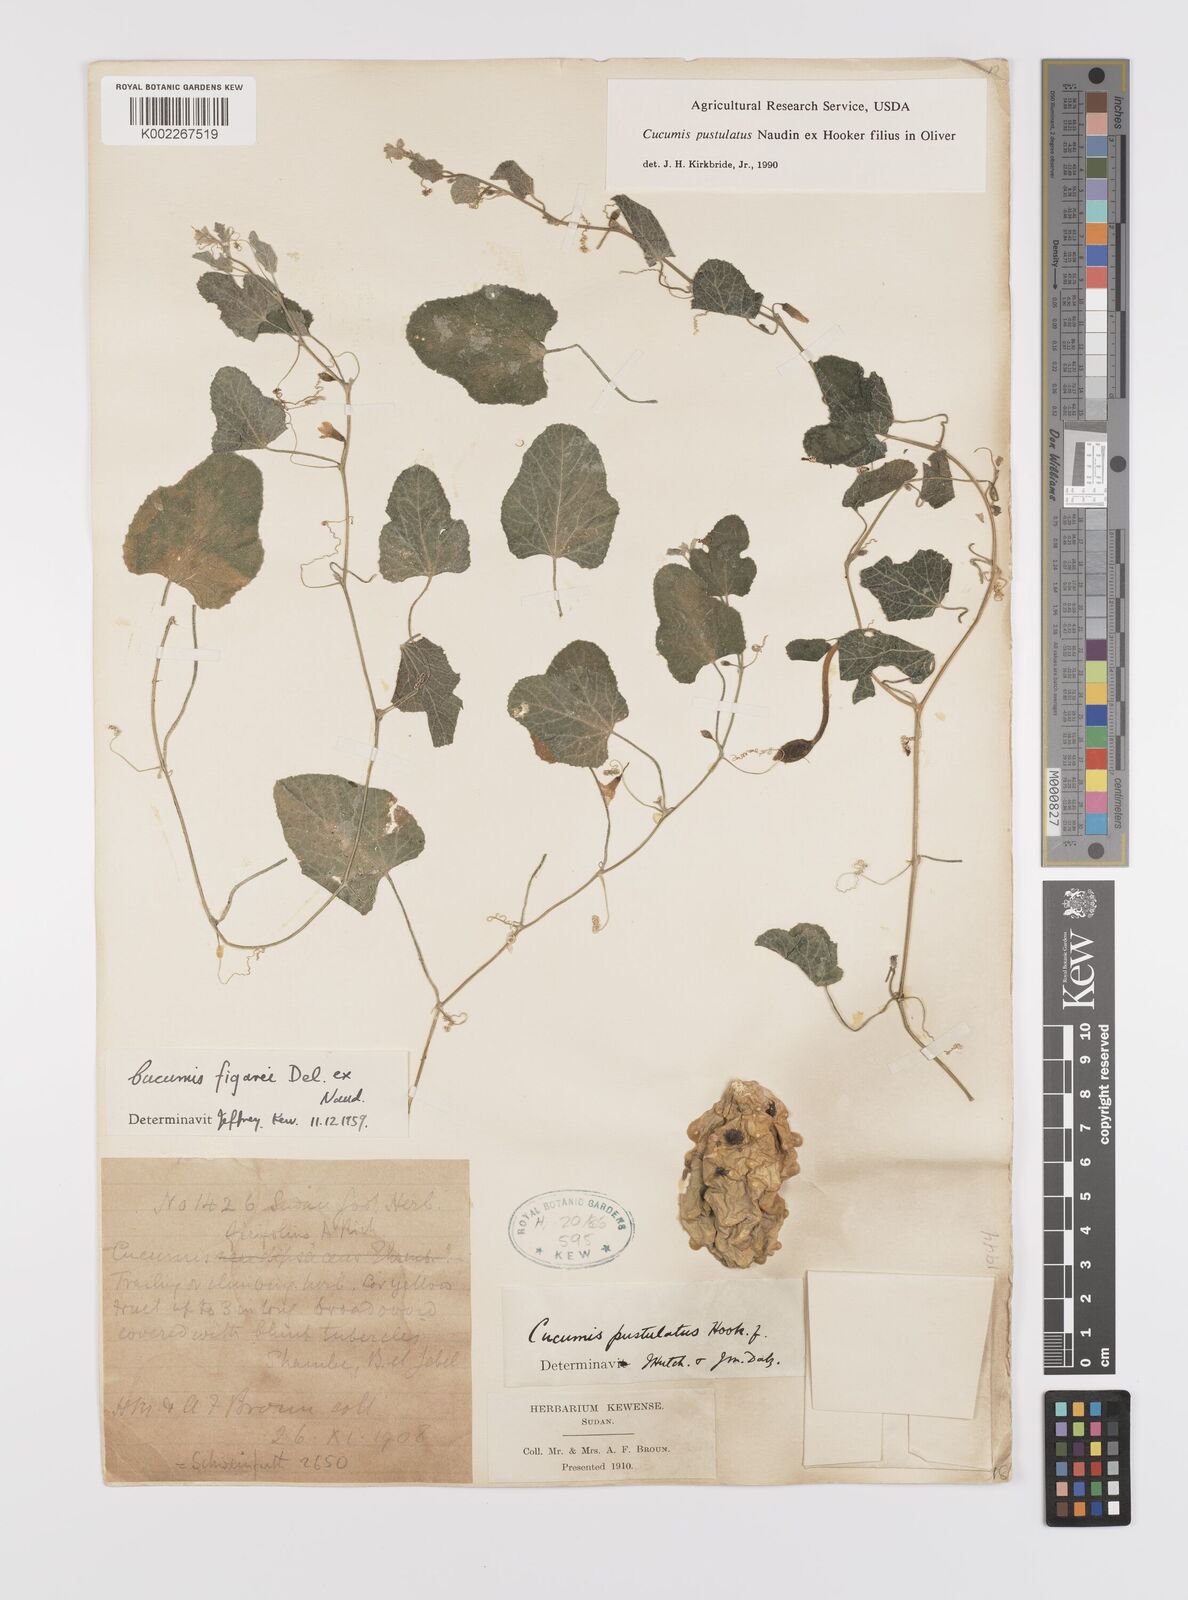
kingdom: Plantae
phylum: Tracheophyta
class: Magnoliopsida
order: Cucurbitales
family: Cucurbitaceae
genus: Cucumis
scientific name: Cucumis pustulatus
